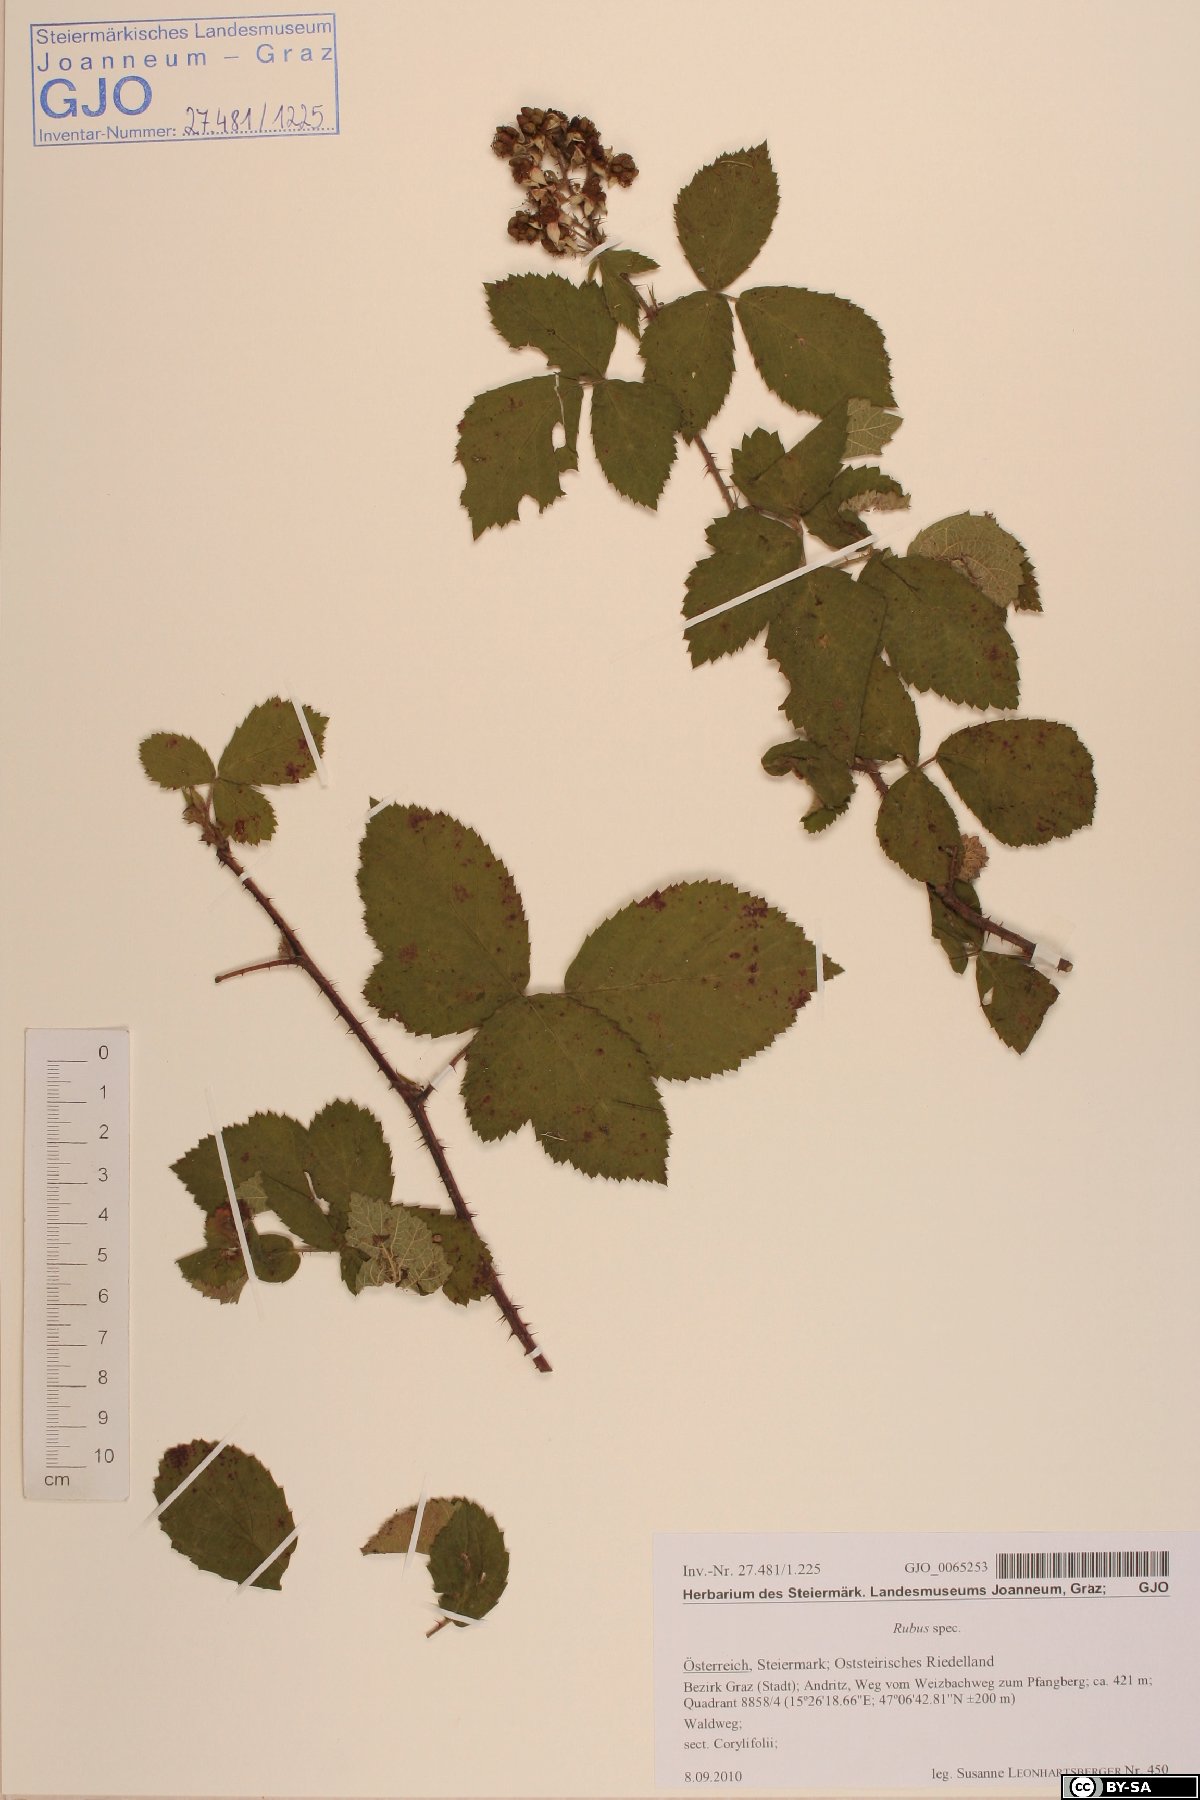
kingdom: Plantae
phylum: Tracheophyta
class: Magnoliopsida
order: Rosales
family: Rosaceae
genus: Rubus
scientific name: Rubus
